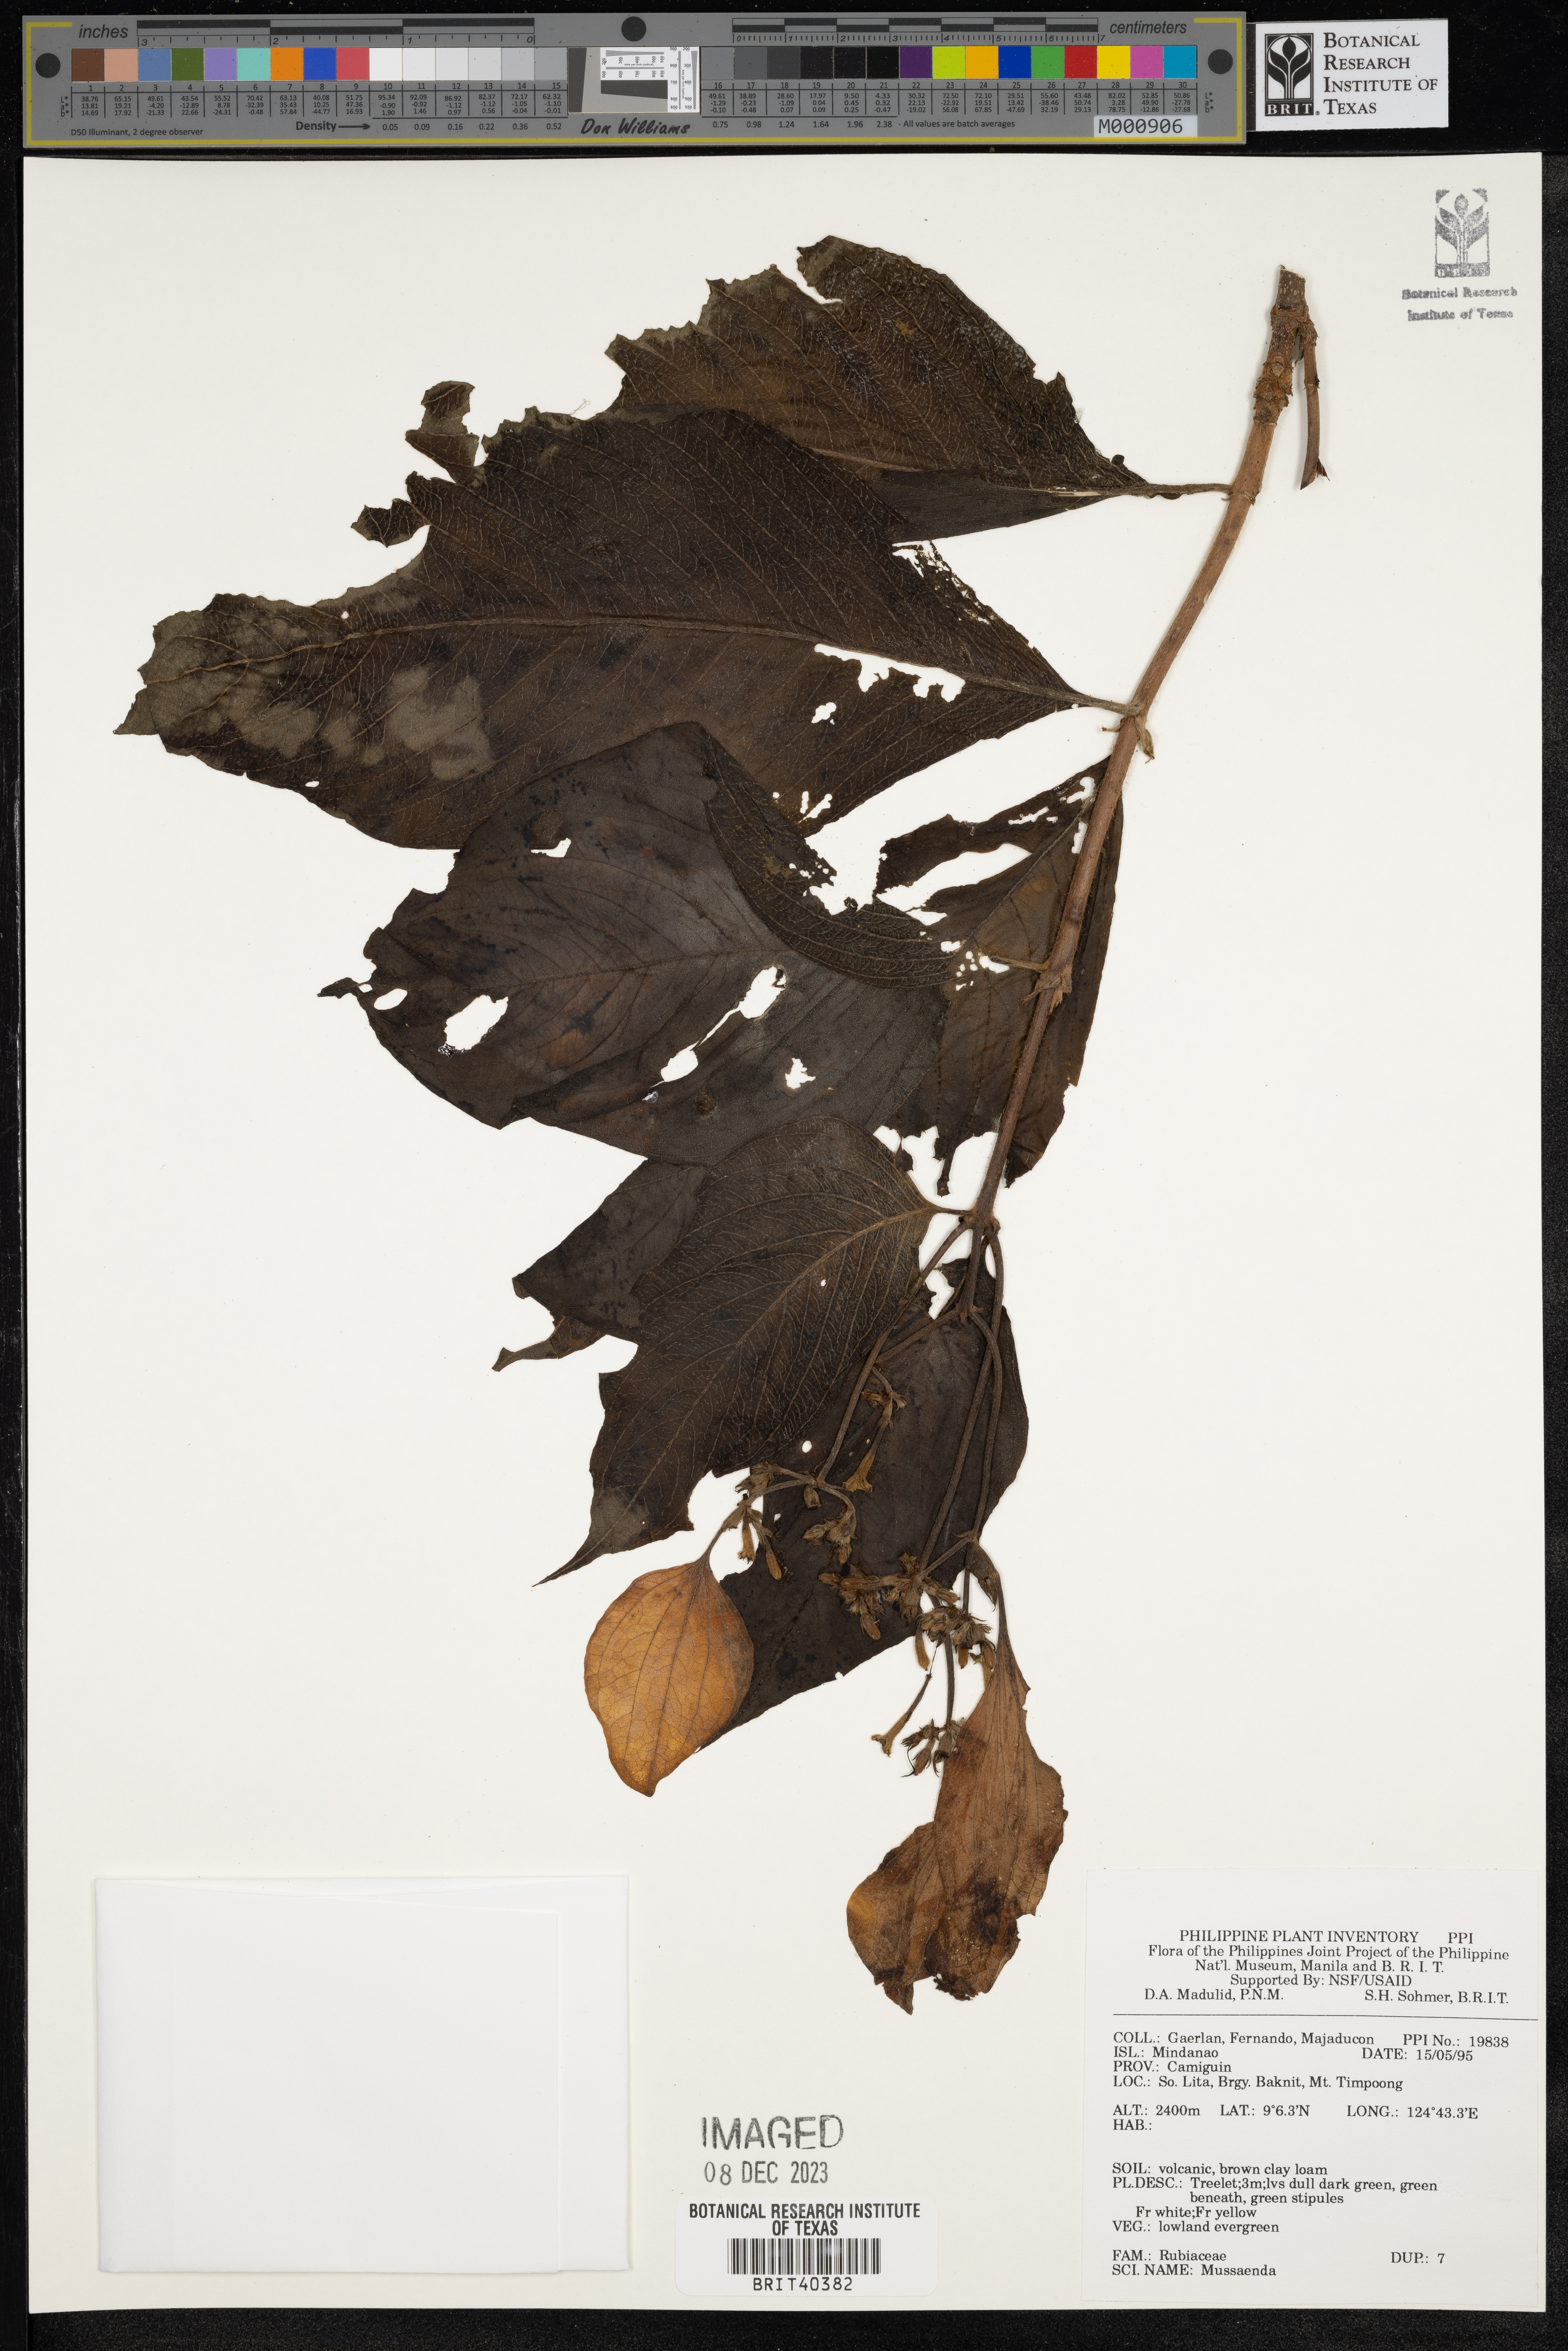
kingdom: Plantae
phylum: Tracheophyta
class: Magnoliopsida
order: Gentianales
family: Rubiaceae
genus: Mussaenda
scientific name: Mussaenda
